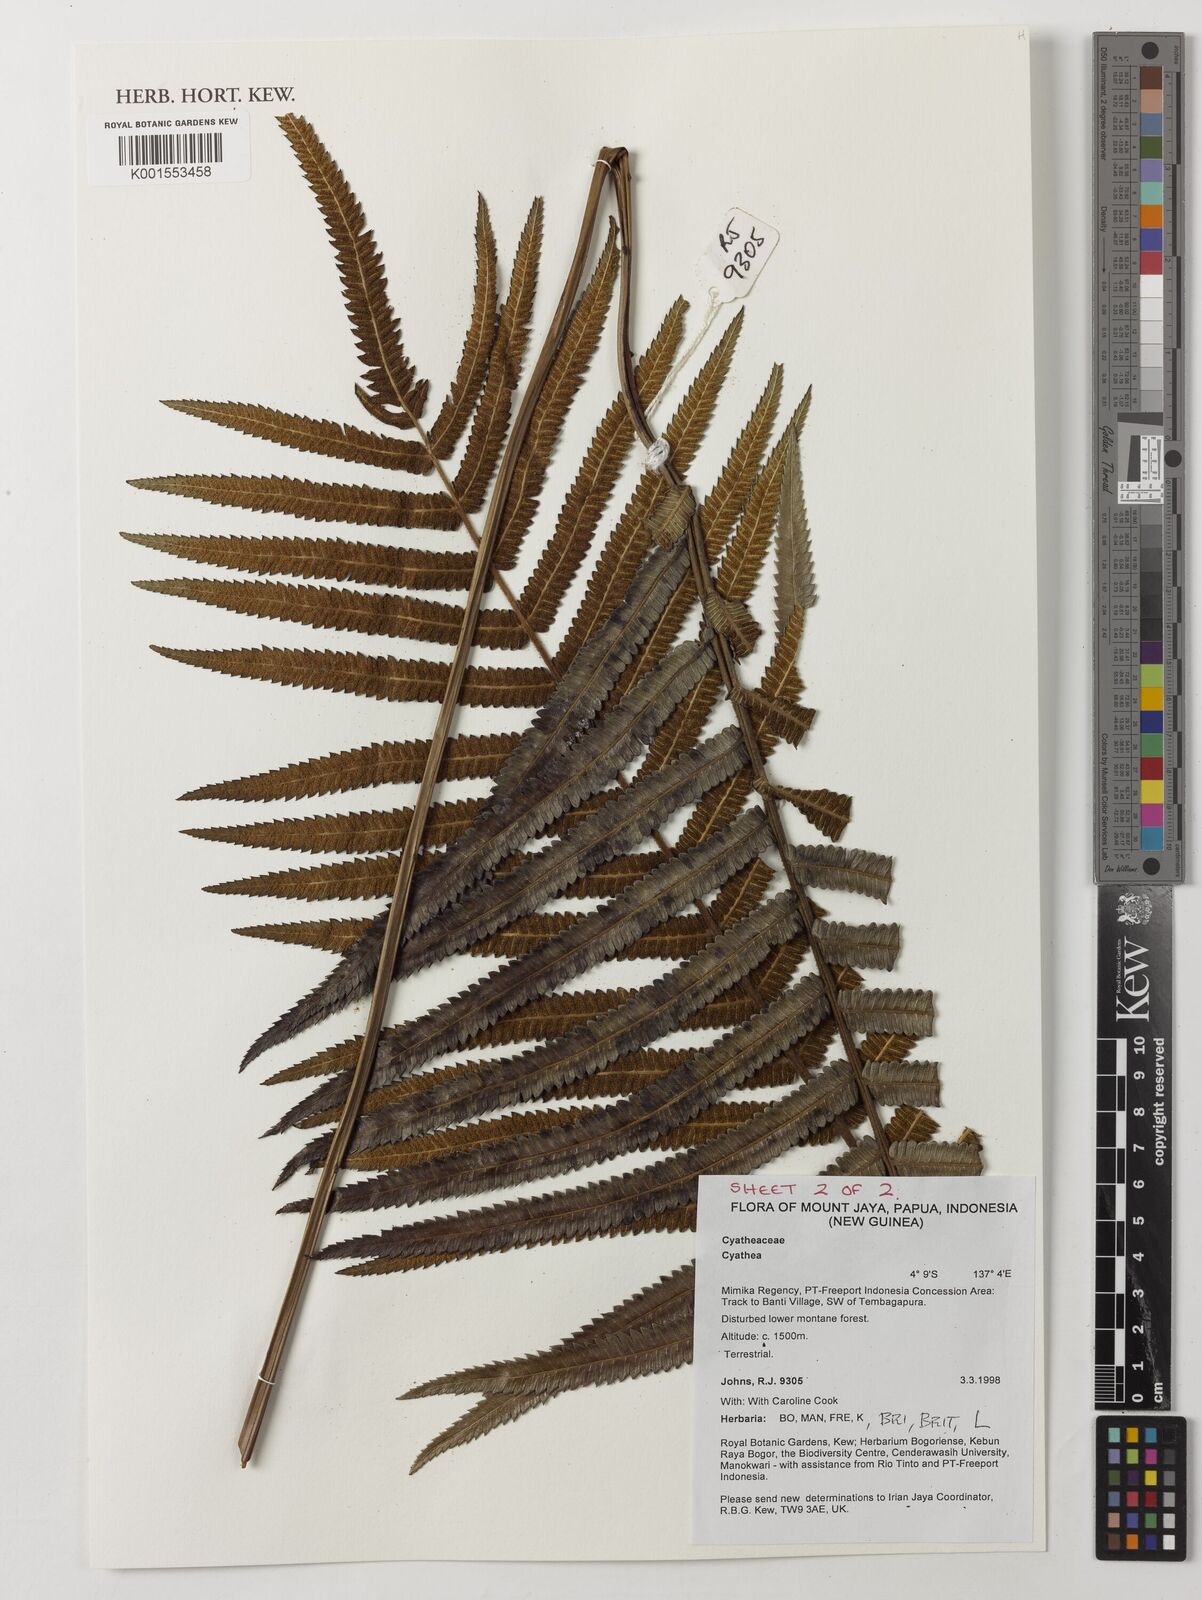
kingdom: Plantae
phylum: Tracheophyta
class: Polypodiopsida
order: Cyatheales
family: Cyatheaceae
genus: Cyathea
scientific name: Cyathea
